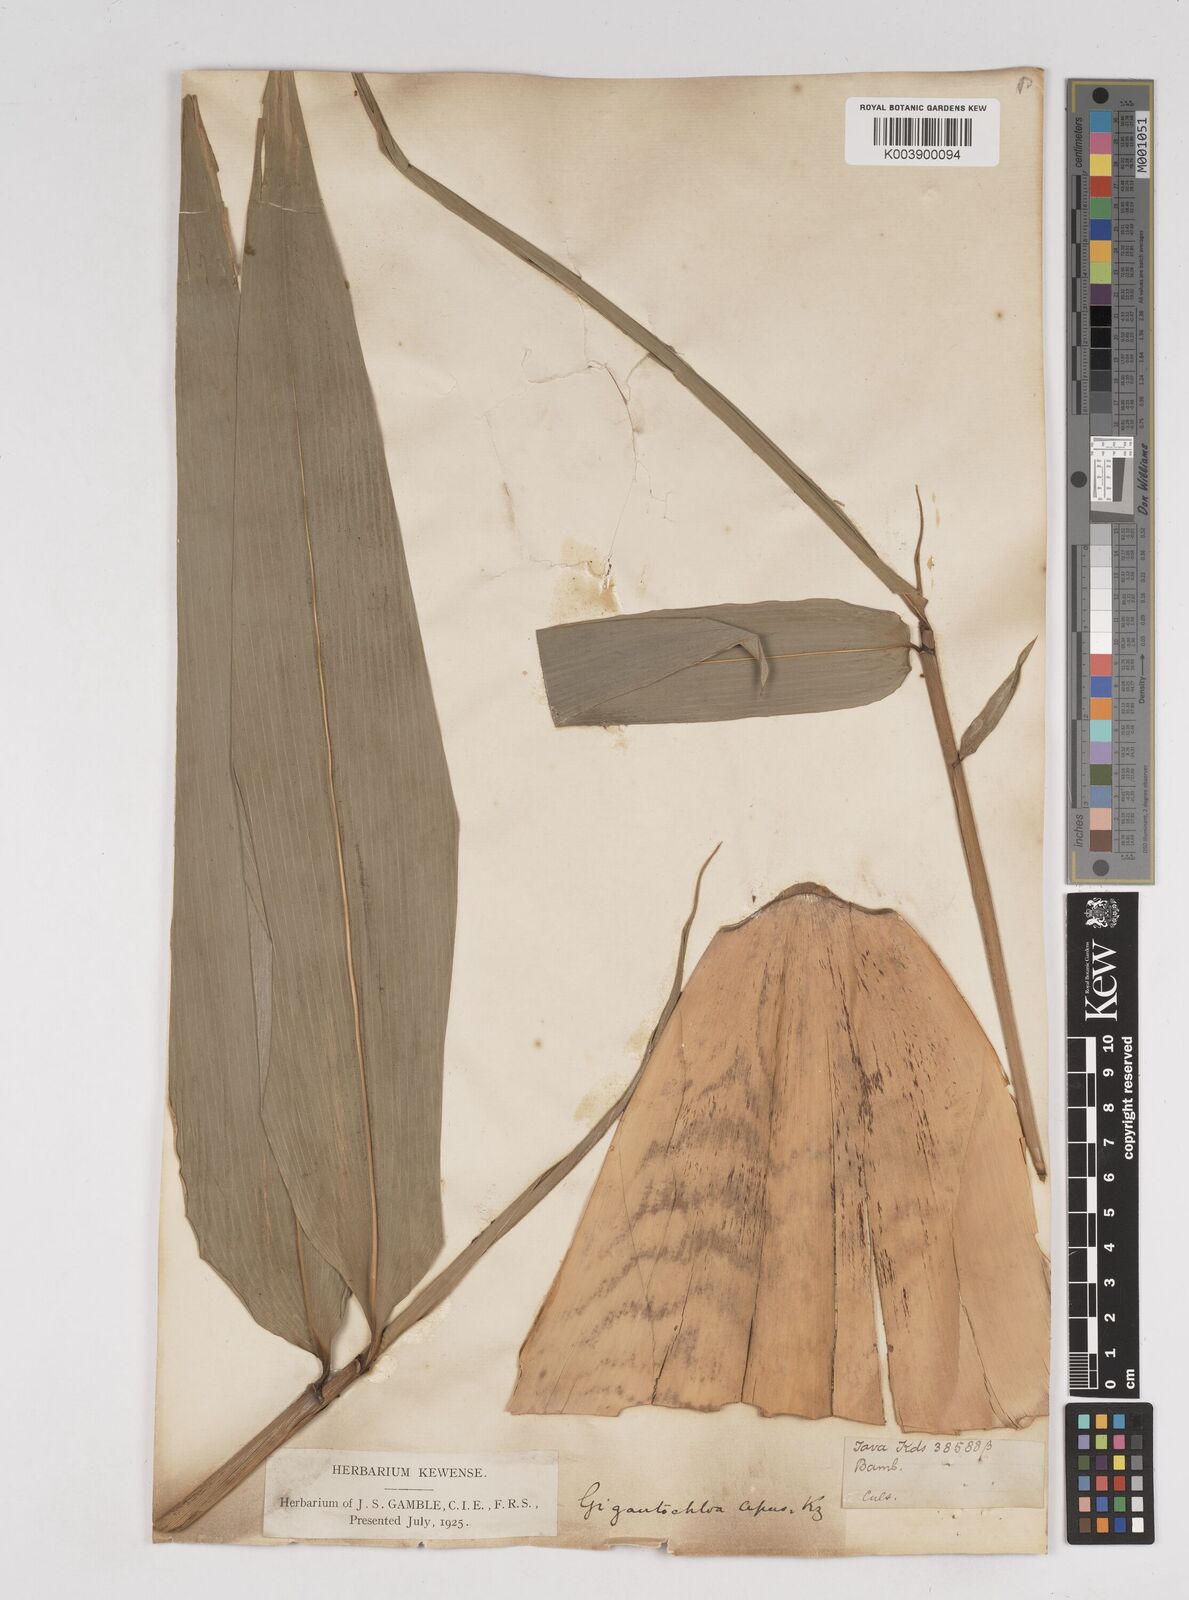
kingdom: Plantae
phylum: Tracheophyta
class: Liliopsida
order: Poales
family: Poaceae
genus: Gigantochloa
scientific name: Gigantochloa apus
